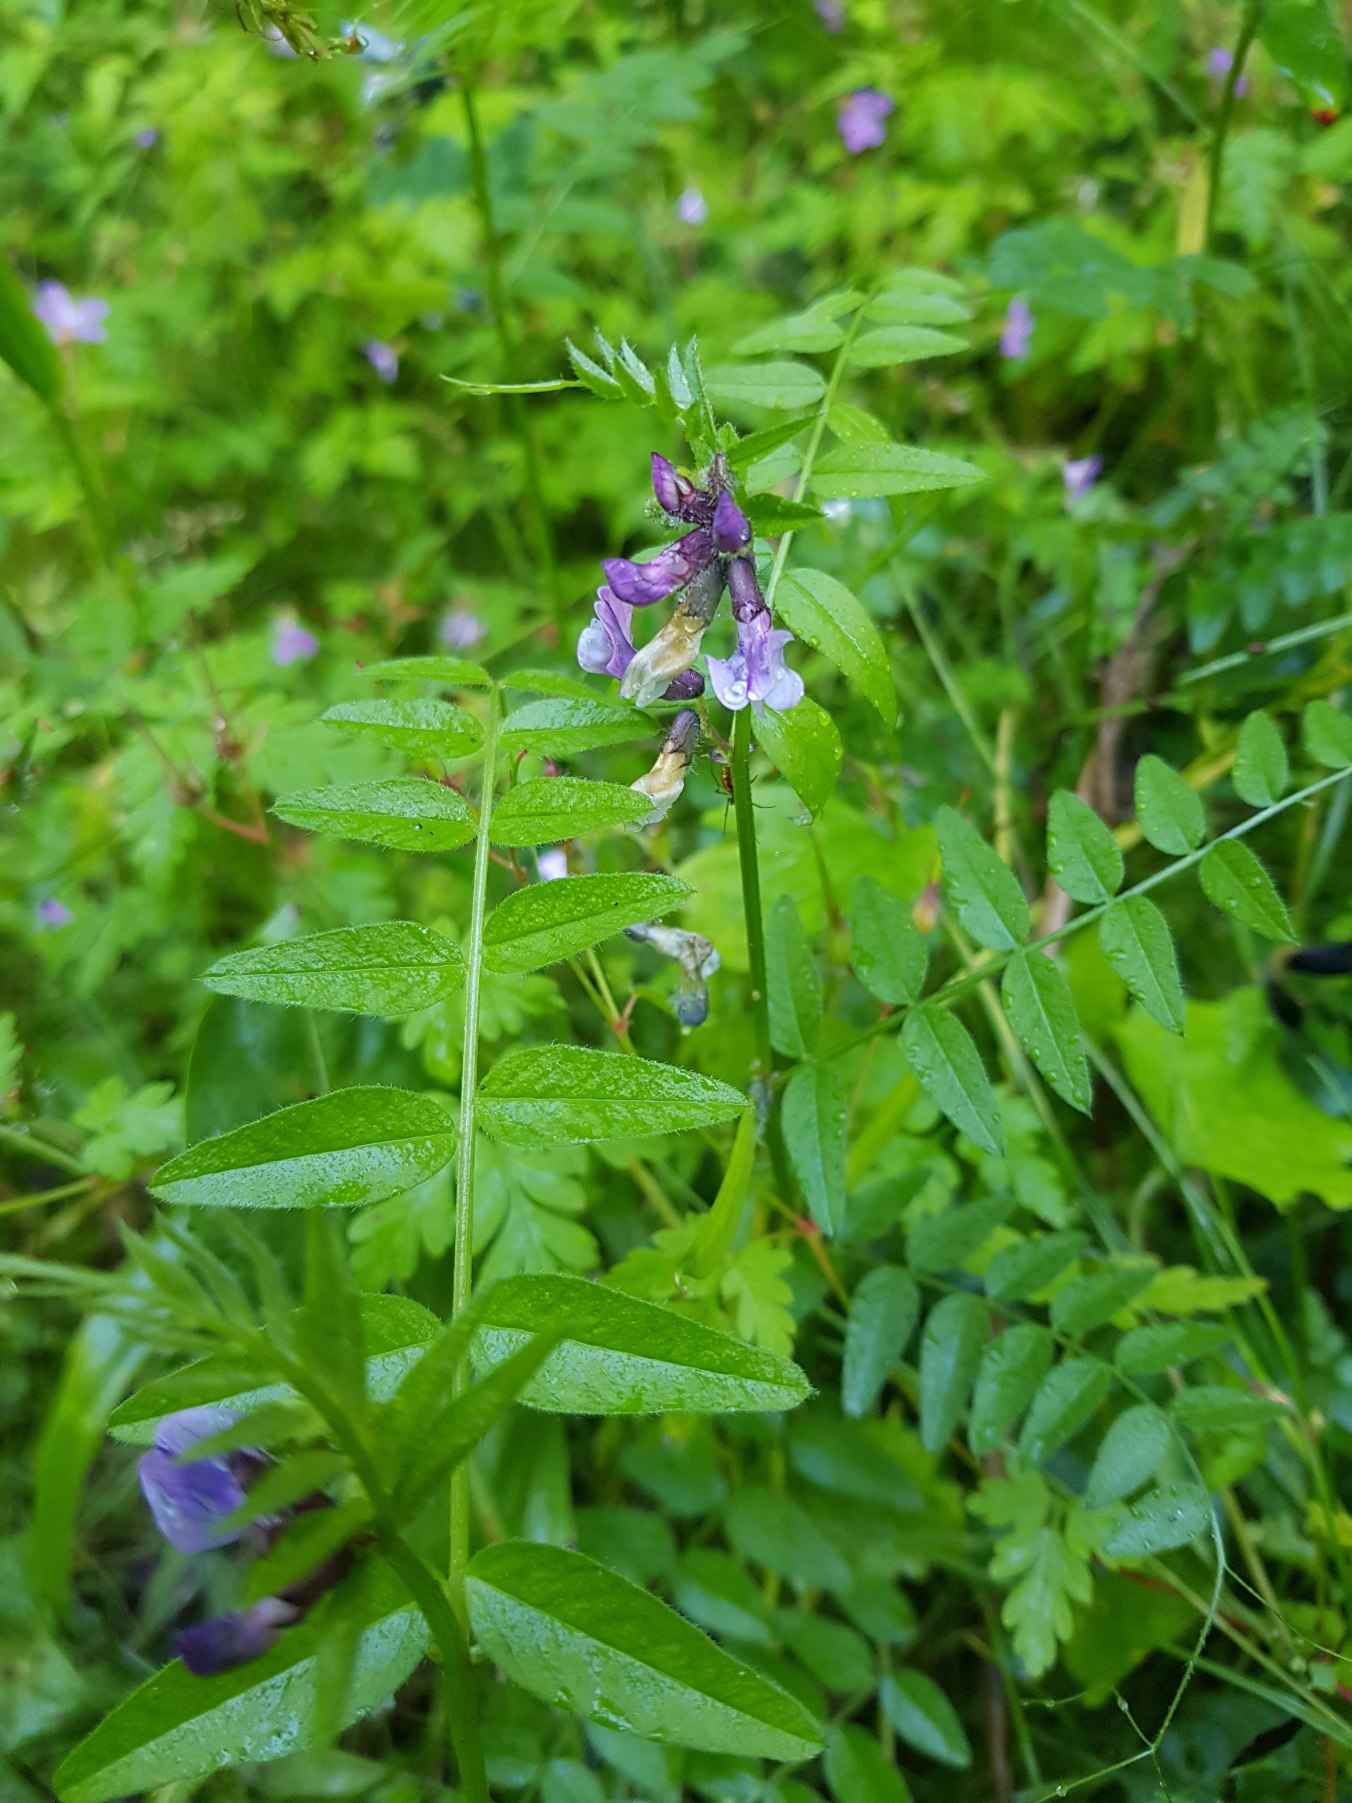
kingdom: Plantae
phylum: Tracheophyta
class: Magnoliopsida
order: Fabales
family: Fabaceae
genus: Vicia
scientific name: Vicia sepium
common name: Gærde-vikke
